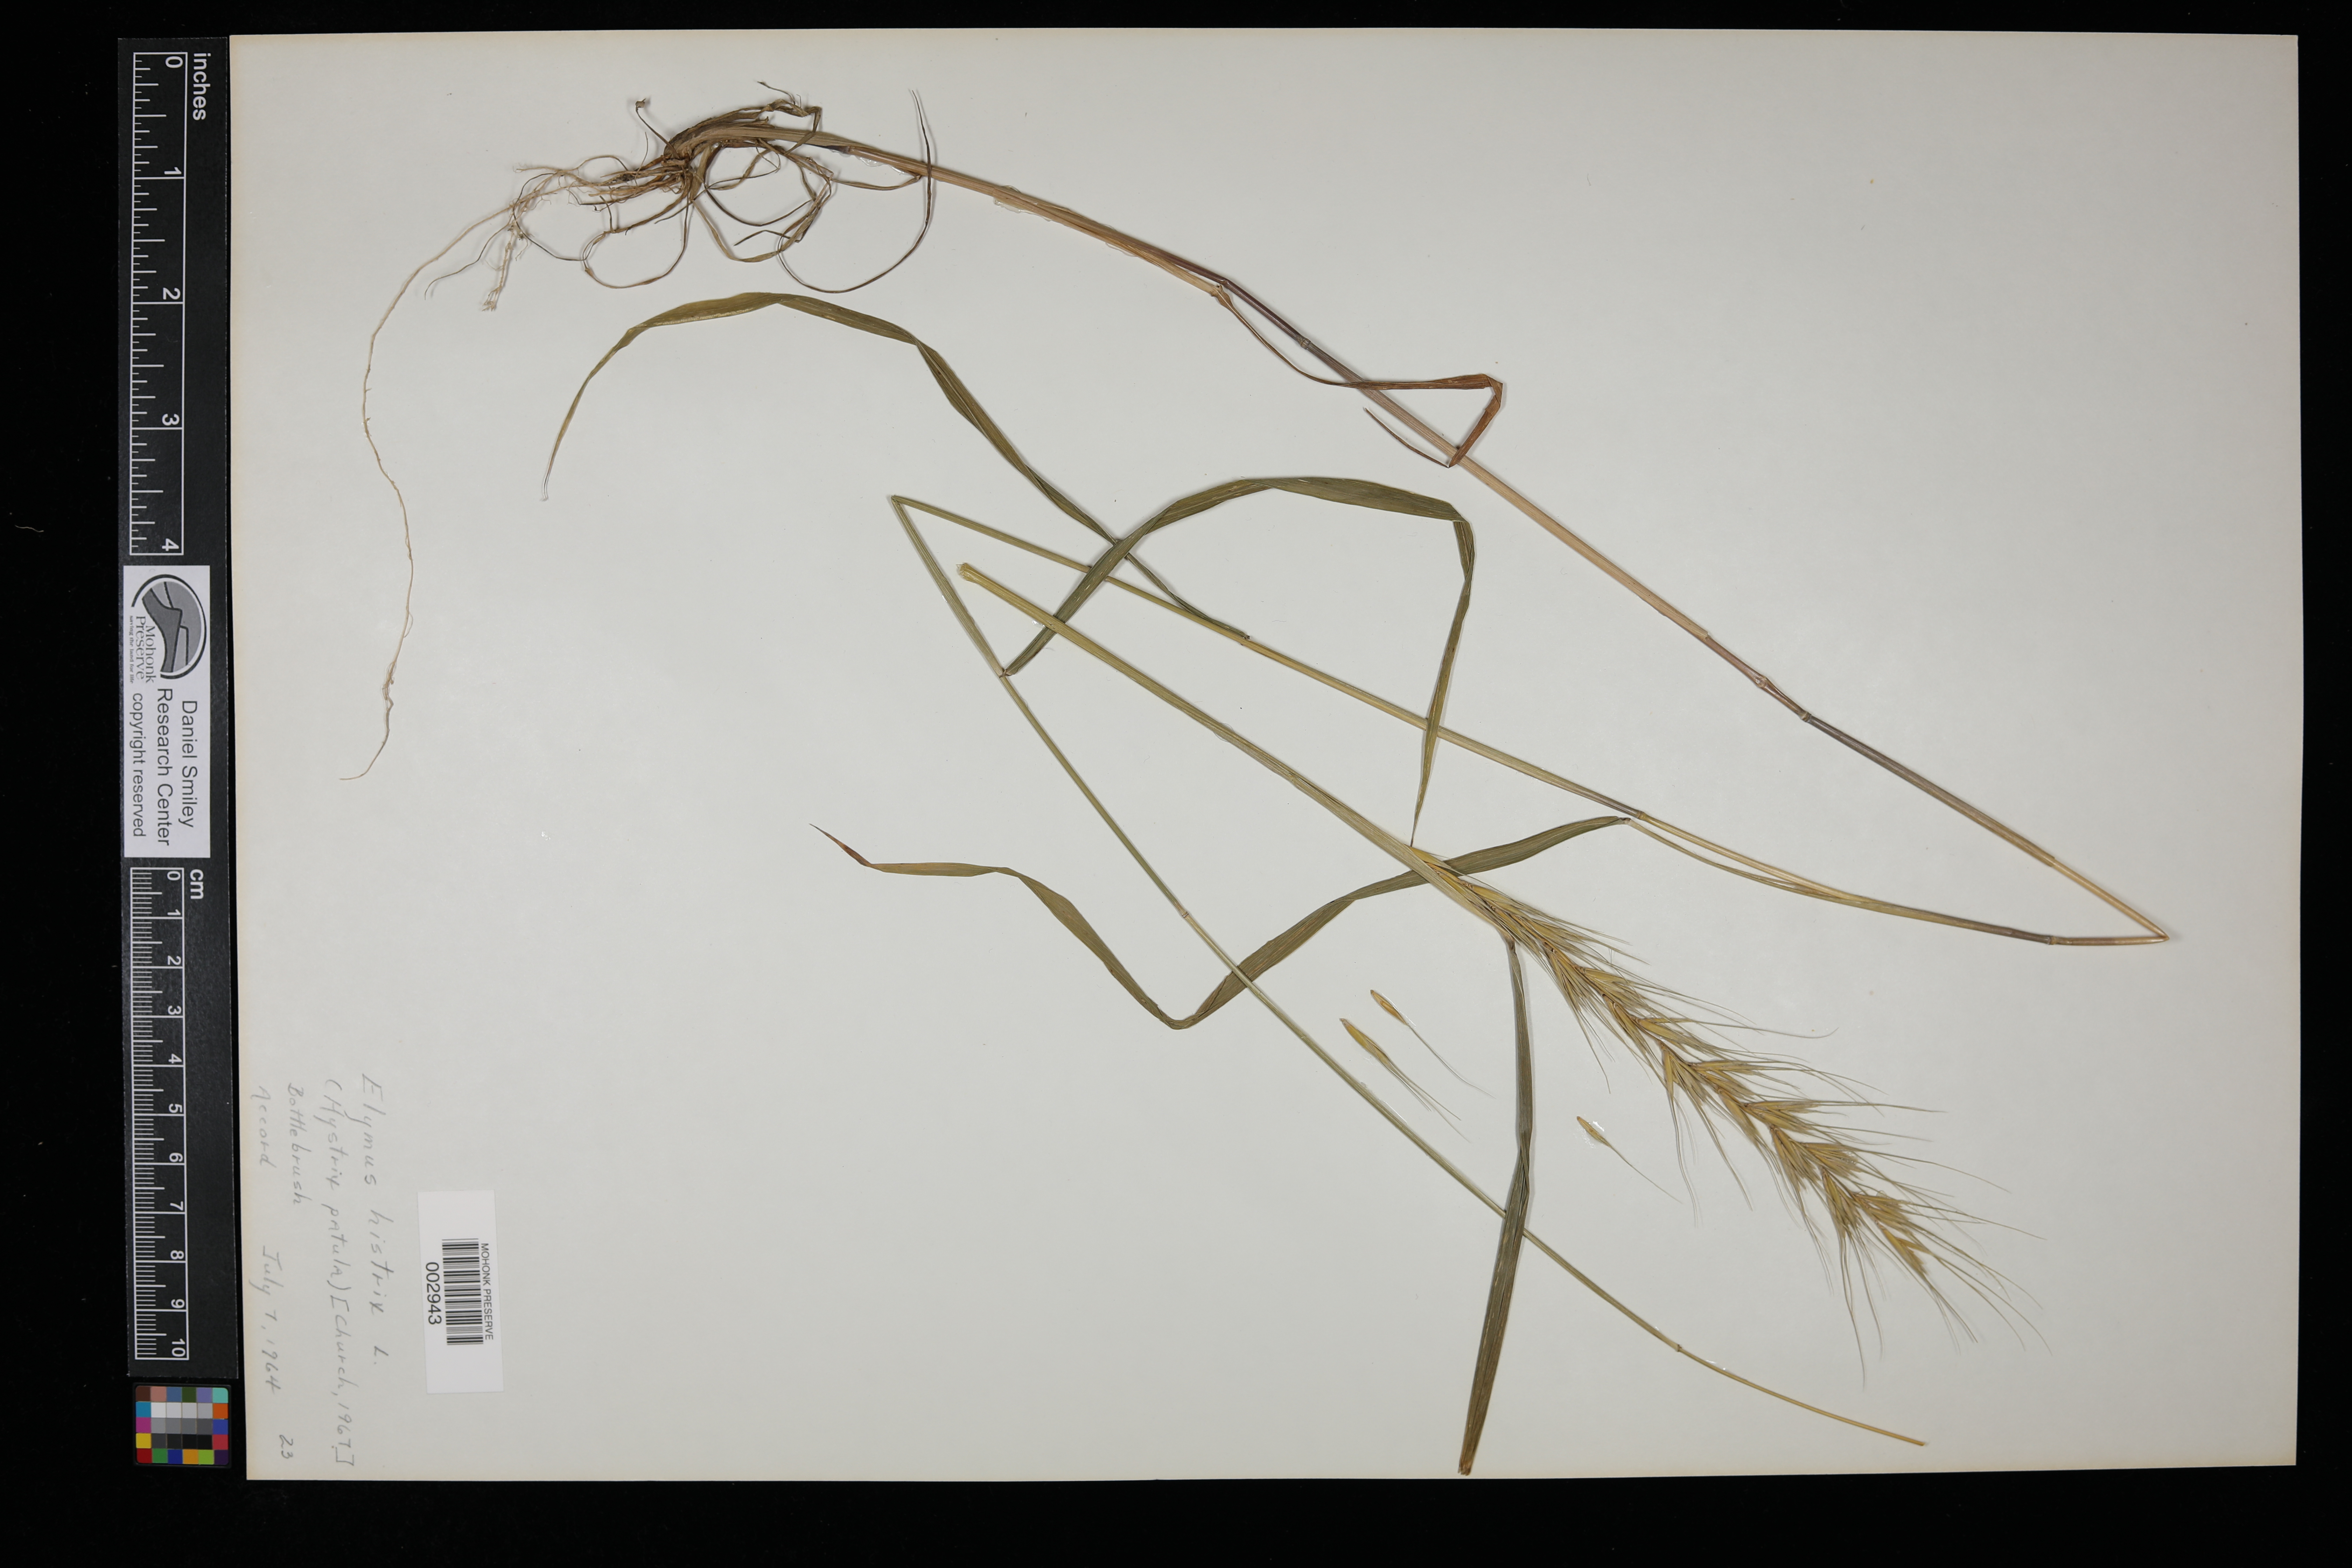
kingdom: Plantae
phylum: Tracheophyta
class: Liliopsida
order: Poales
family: Poaceae
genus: Elymus
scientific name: Elymus hystrix
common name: Bottlebrush grass
